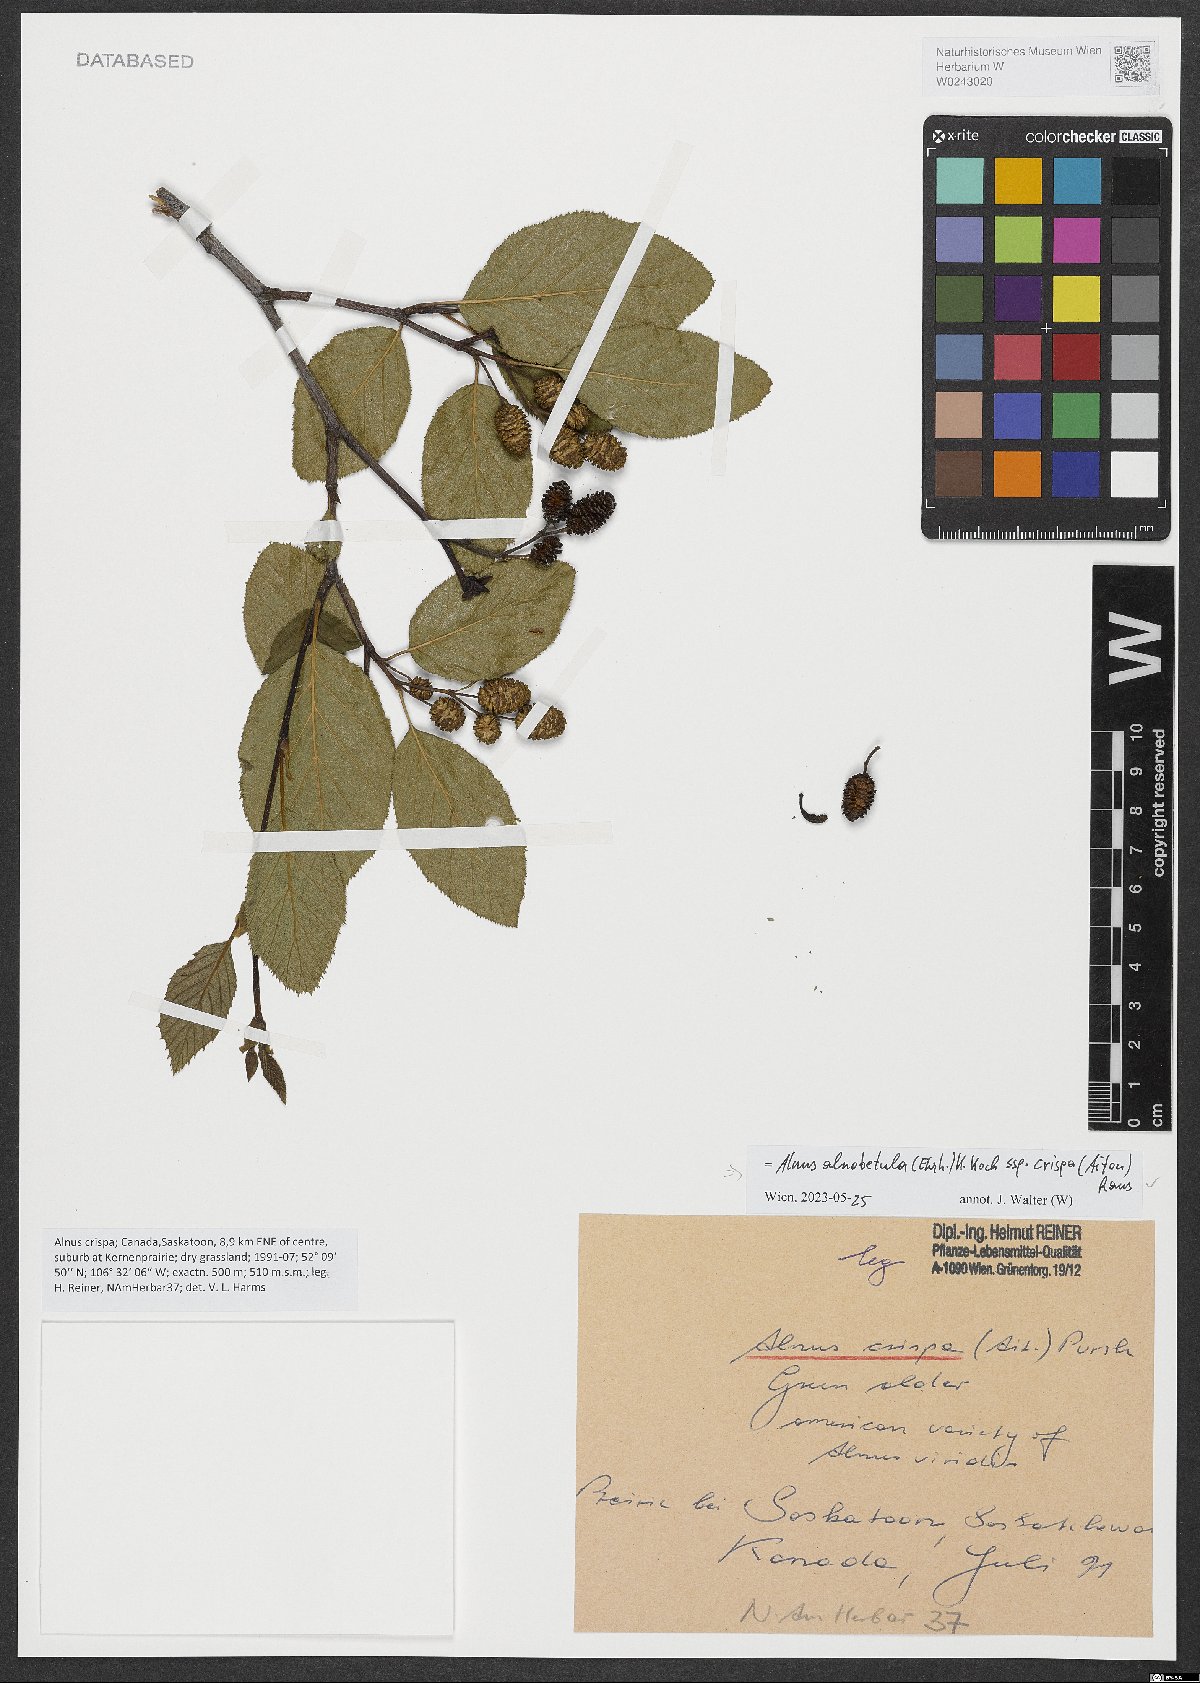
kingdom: Plantae
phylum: Tracheophyta
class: Magnoliopsida
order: Fagales
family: Betulaceae
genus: Alnus
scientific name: Alnus alnobetula
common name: Green alder
